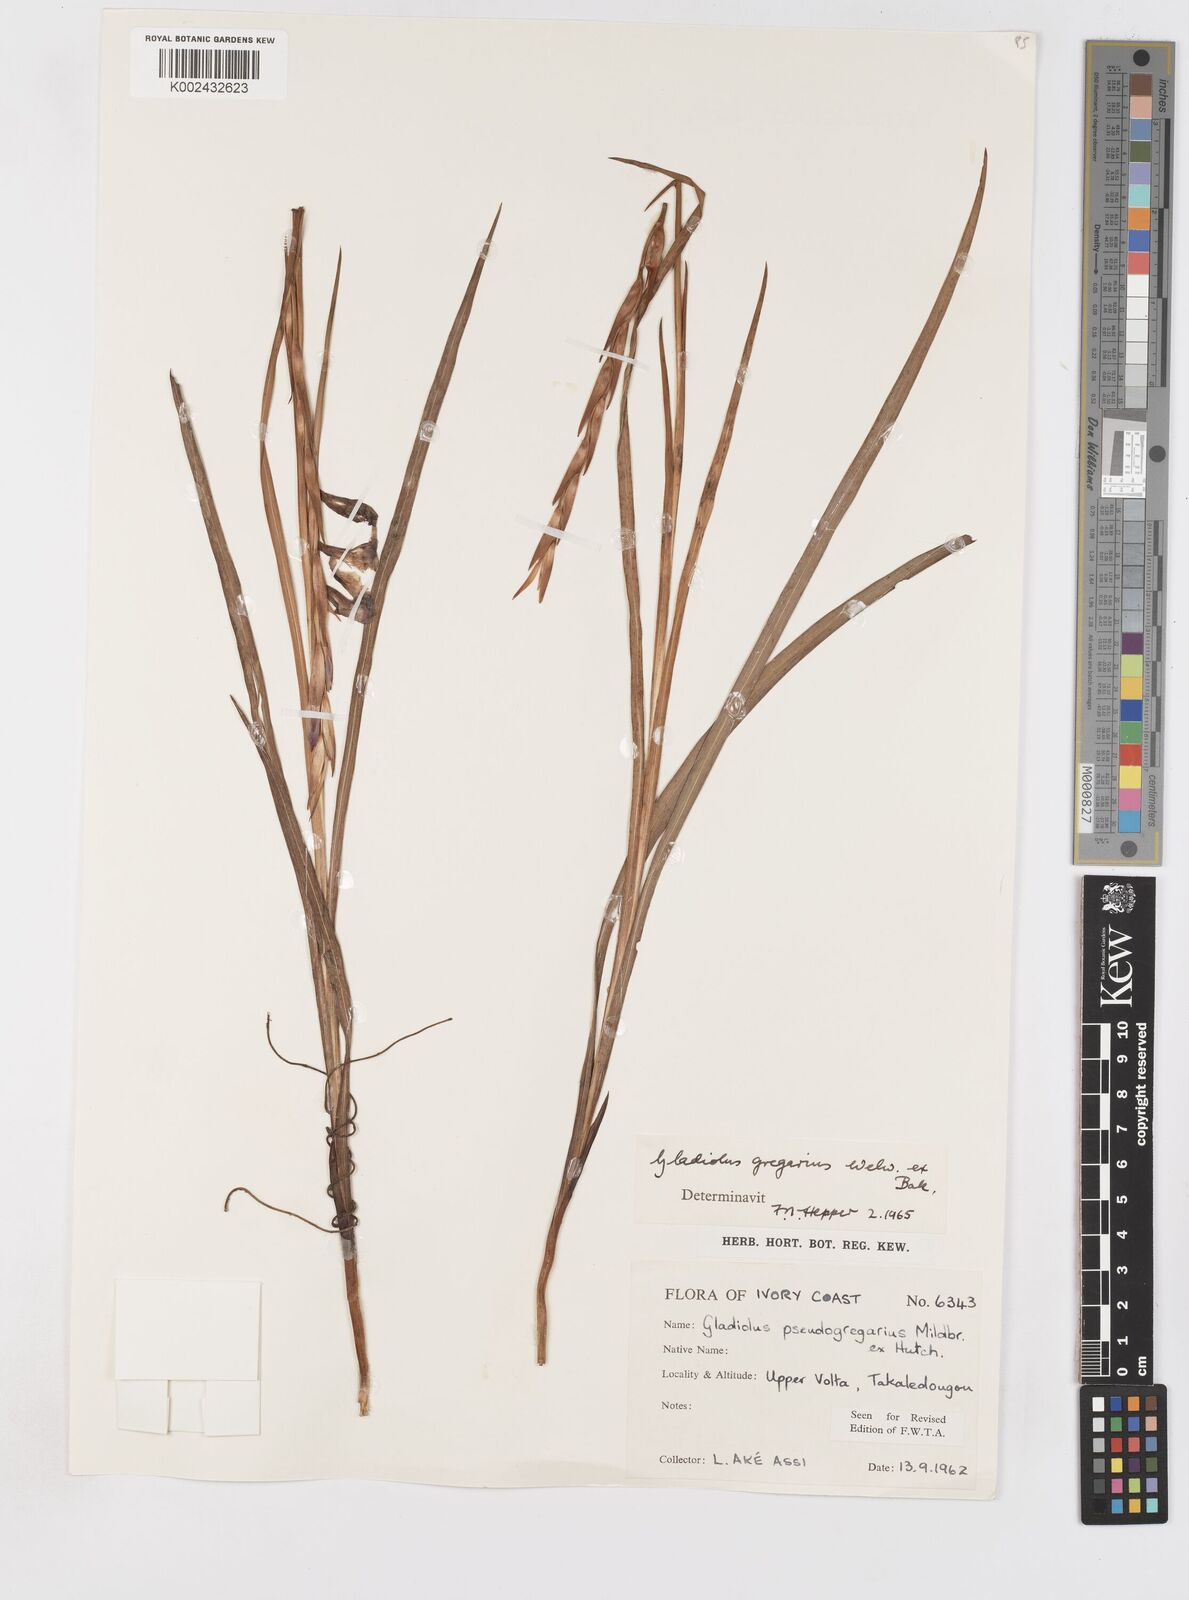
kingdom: Plantae
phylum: Tracheophyta
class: Liliopsida
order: Asparagales
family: Iridaceae
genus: Gladiolus
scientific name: Gladiolus gregarius
